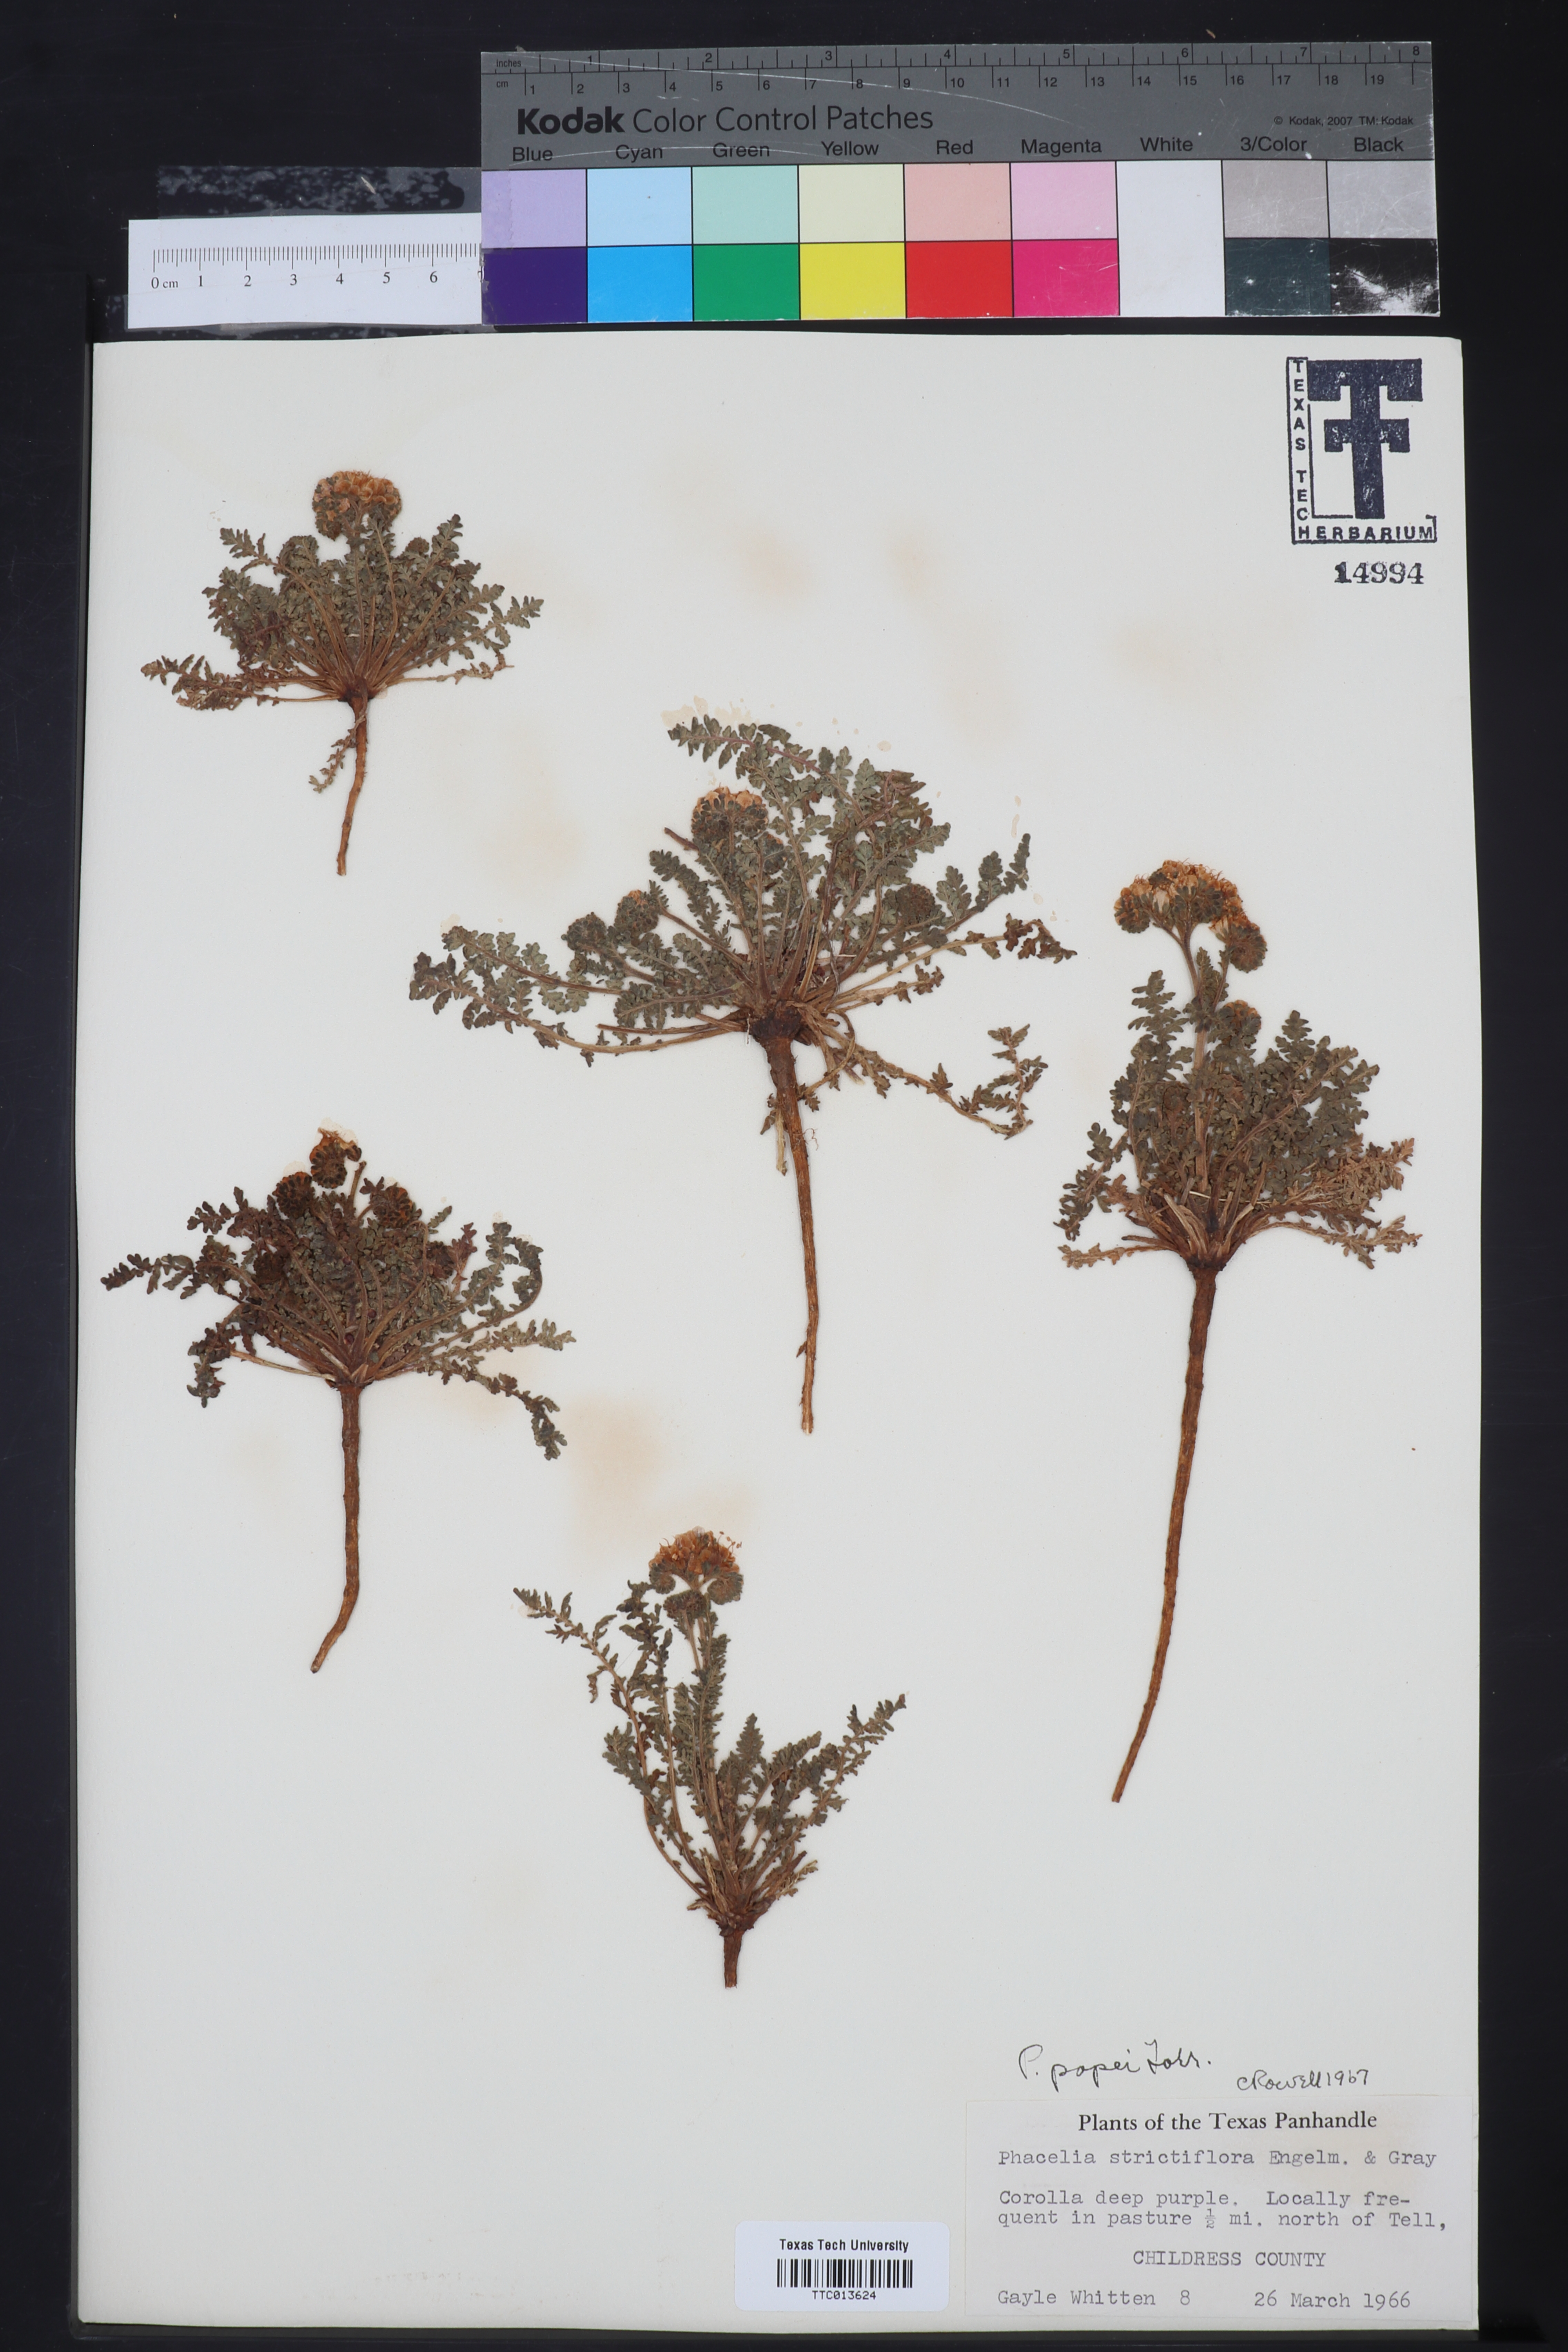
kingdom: Plantae
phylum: Tracheophyta
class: Magnoliopsida
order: Boraginales
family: Hydrophyllaceae
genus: Phacelia
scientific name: Phacelia popei
